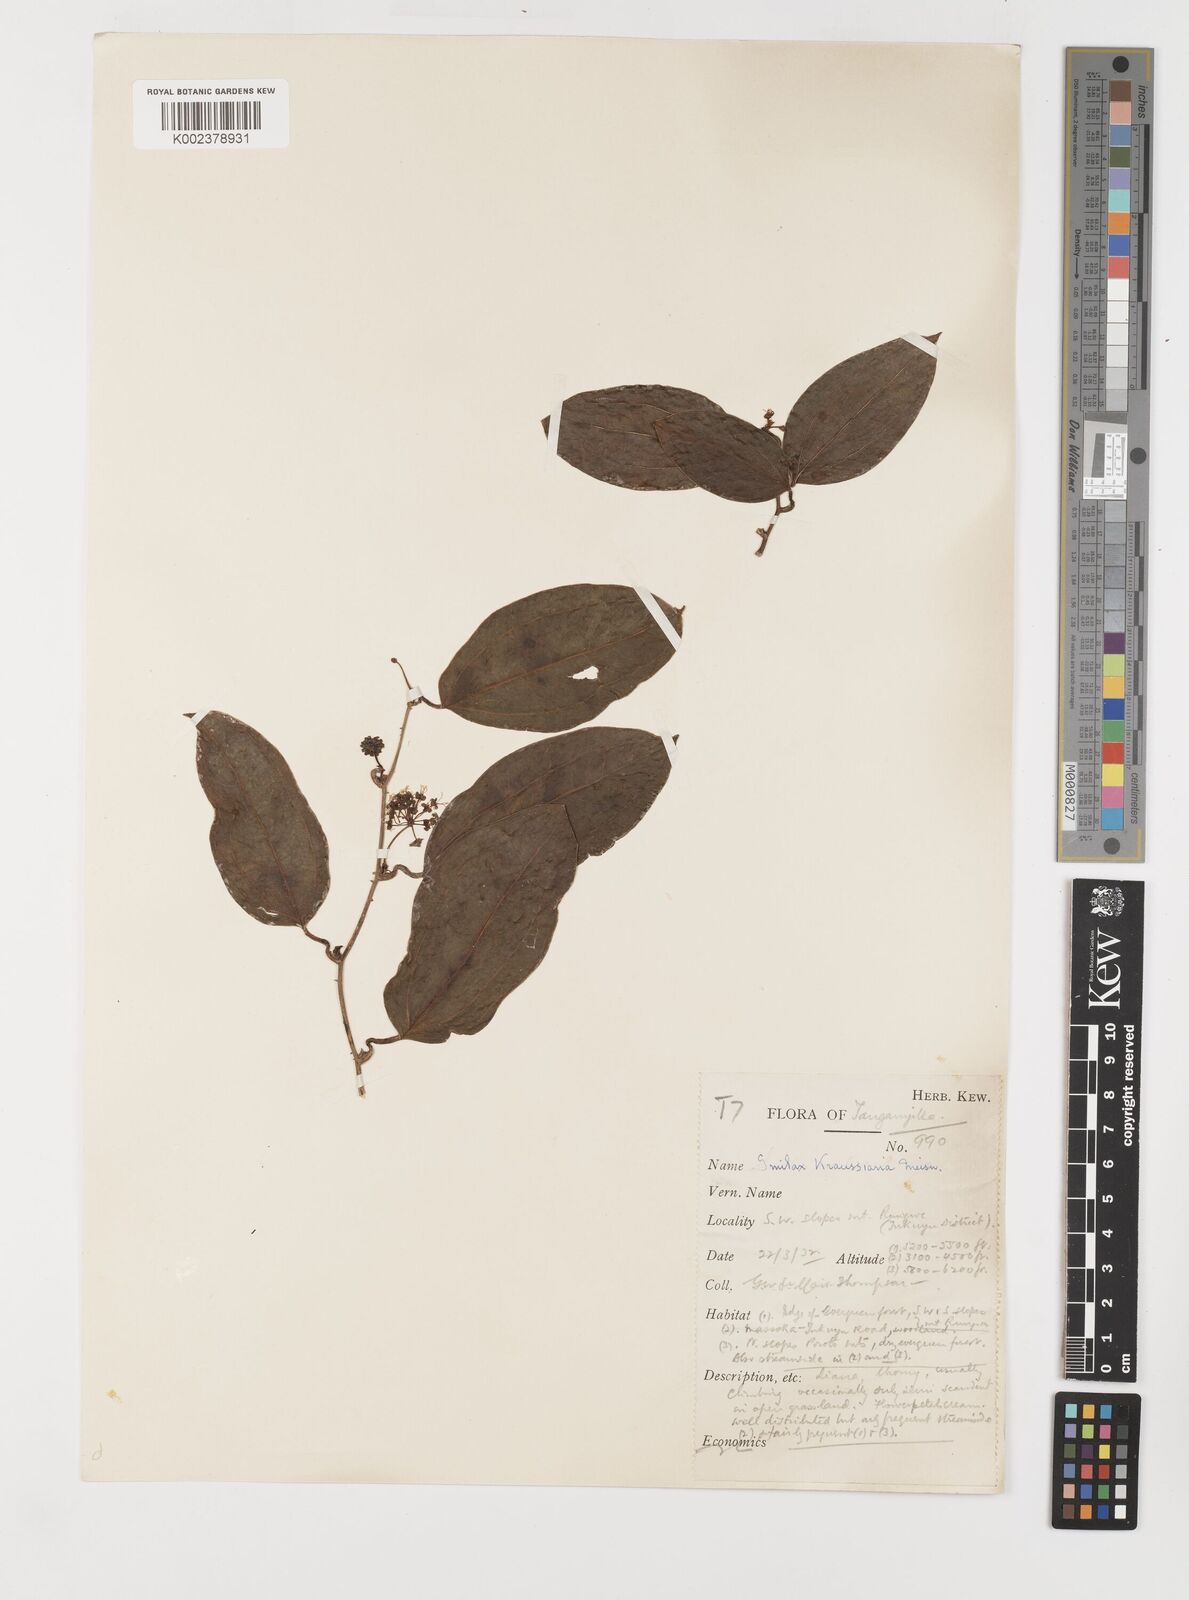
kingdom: Plantae
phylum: Tracheophyta
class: Liliopsida
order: Liliales
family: Smilacaceae
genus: Smilax
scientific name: Smilax anceps
